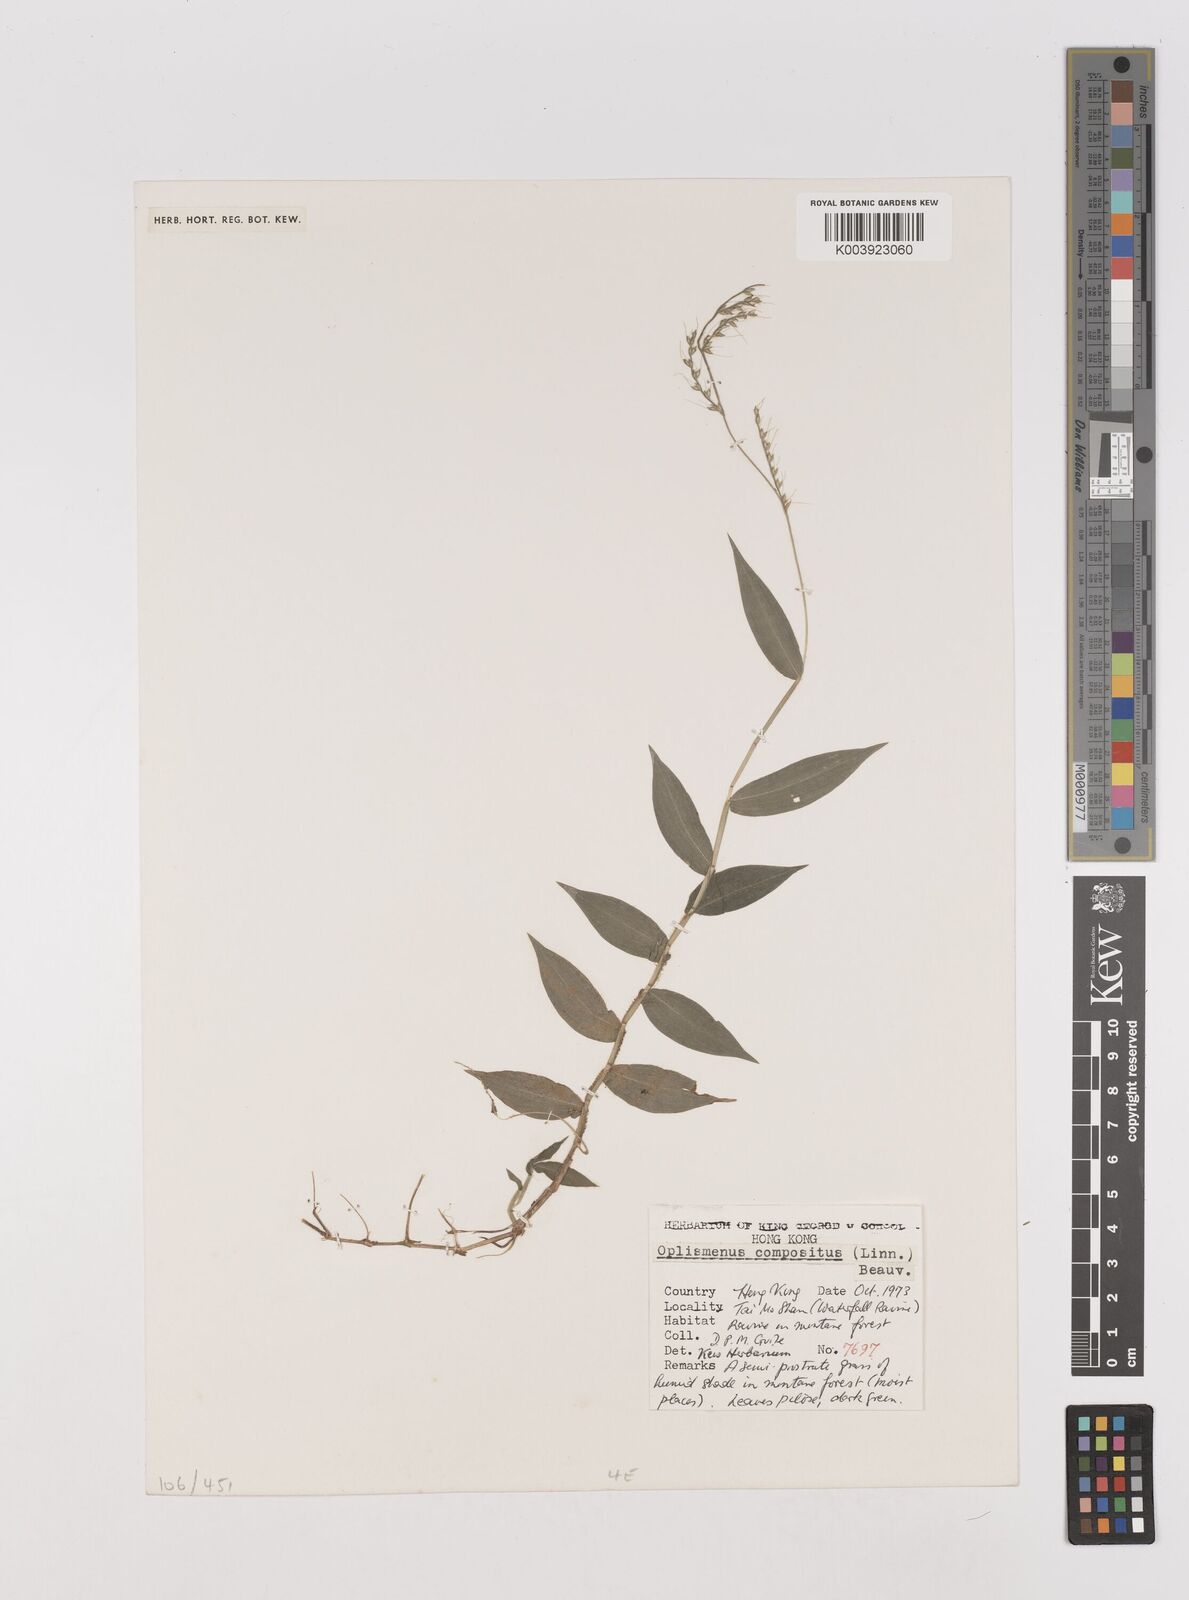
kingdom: Plantae
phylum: Tracheophyta
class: Liliopsida
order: Poales
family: Poaceae
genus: Oplismenus
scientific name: Oplismenus compositus
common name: Running mountain grass
